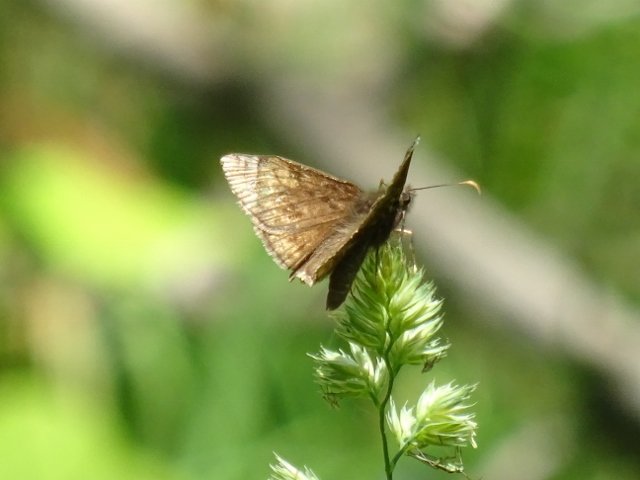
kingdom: Animalia
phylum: Arthropoda
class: Insecta
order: Lepidoptera
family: Hesperiidae
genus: Erynnis
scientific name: Erynnis
